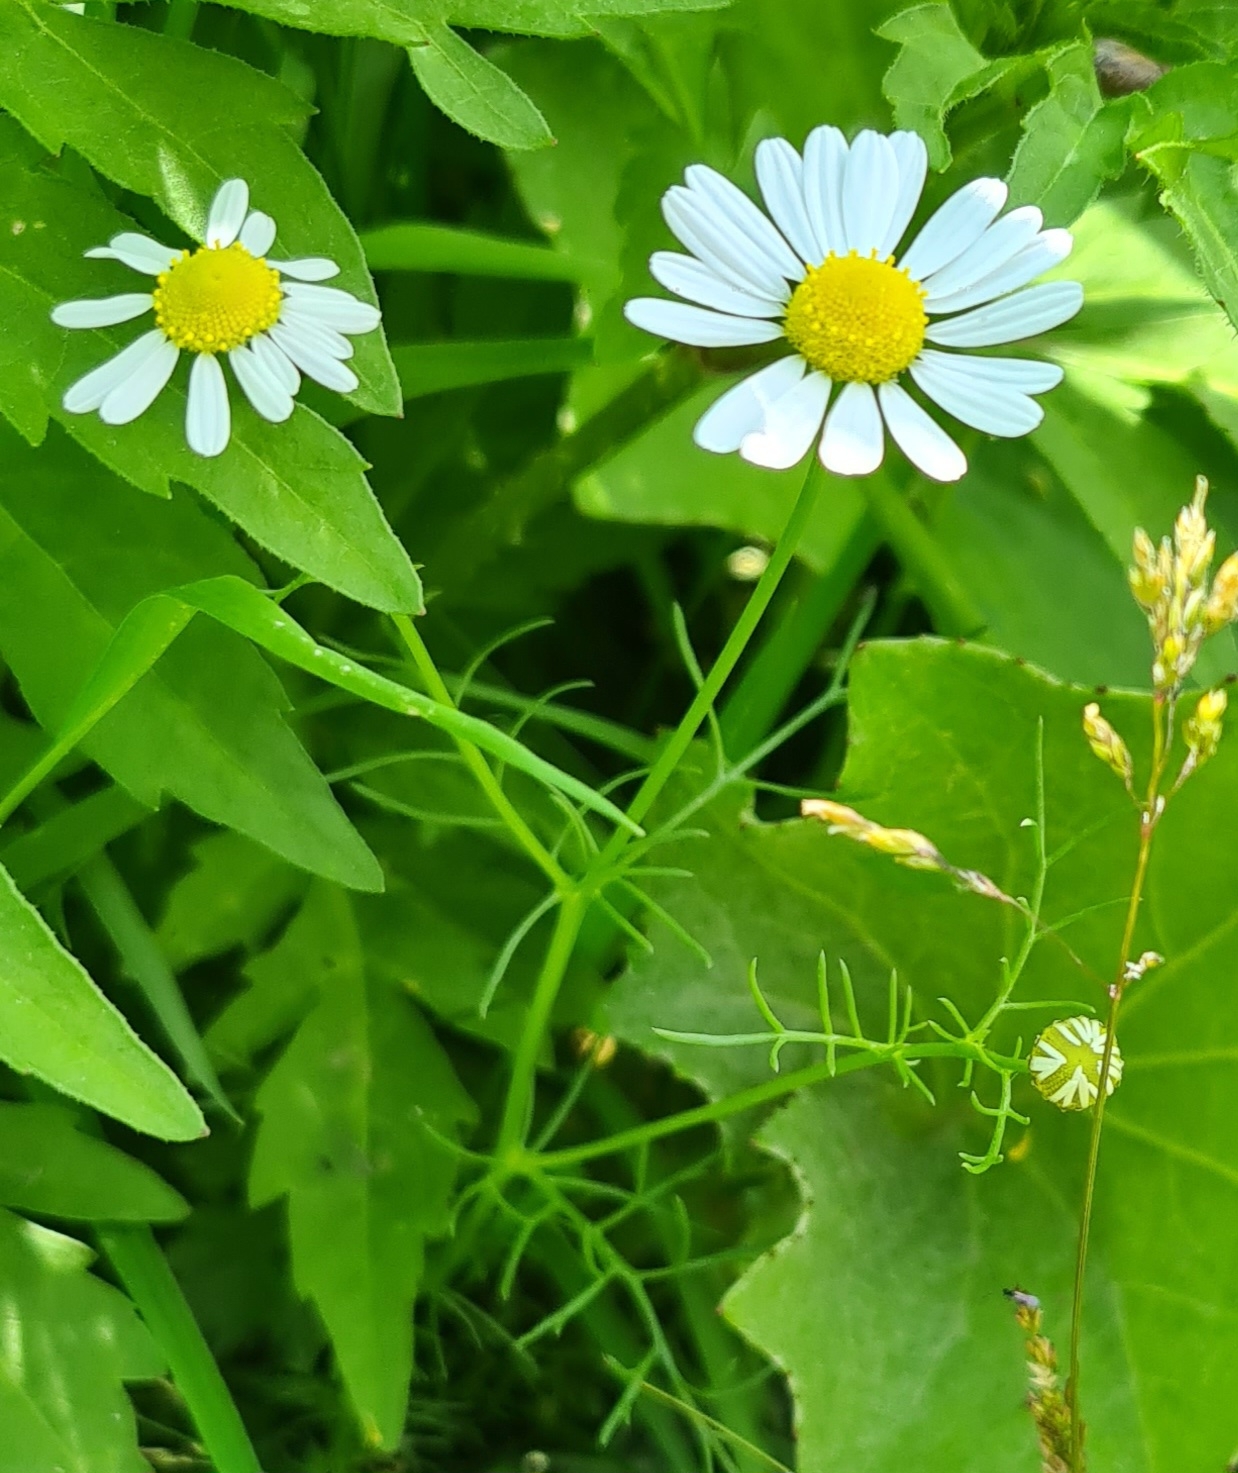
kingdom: Plantae
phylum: Tracheophyta
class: Magnoliopsida
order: Asterales
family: Asteraceae
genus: Tripleurospermum
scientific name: Tripleurospermum inodorum
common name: Lugtløs kamille
